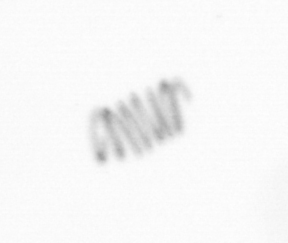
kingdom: Chromista
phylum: Ochrophyta
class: Bacillariophyceae
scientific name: Bacillariophyceae
